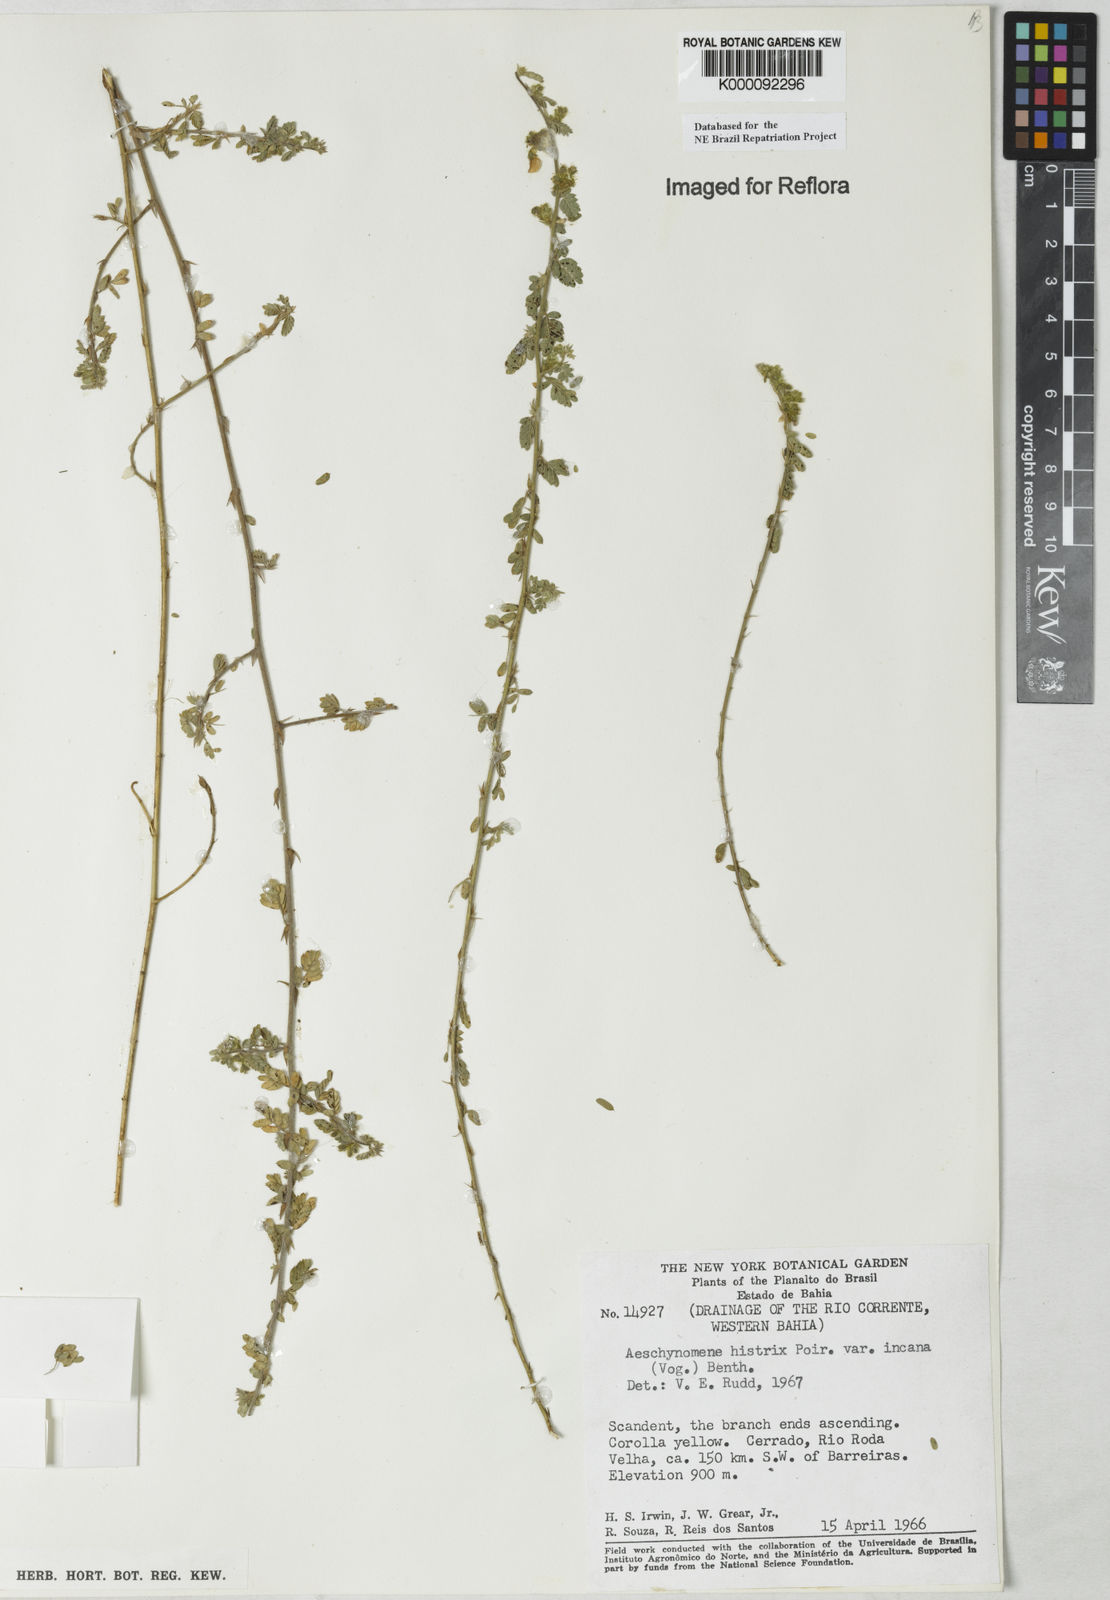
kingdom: Plantae
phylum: Tracheophyta
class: Magnoliopsida
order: Fabales
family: Fabaceae
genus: Ctenodon
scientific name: Ctenodon histrix
